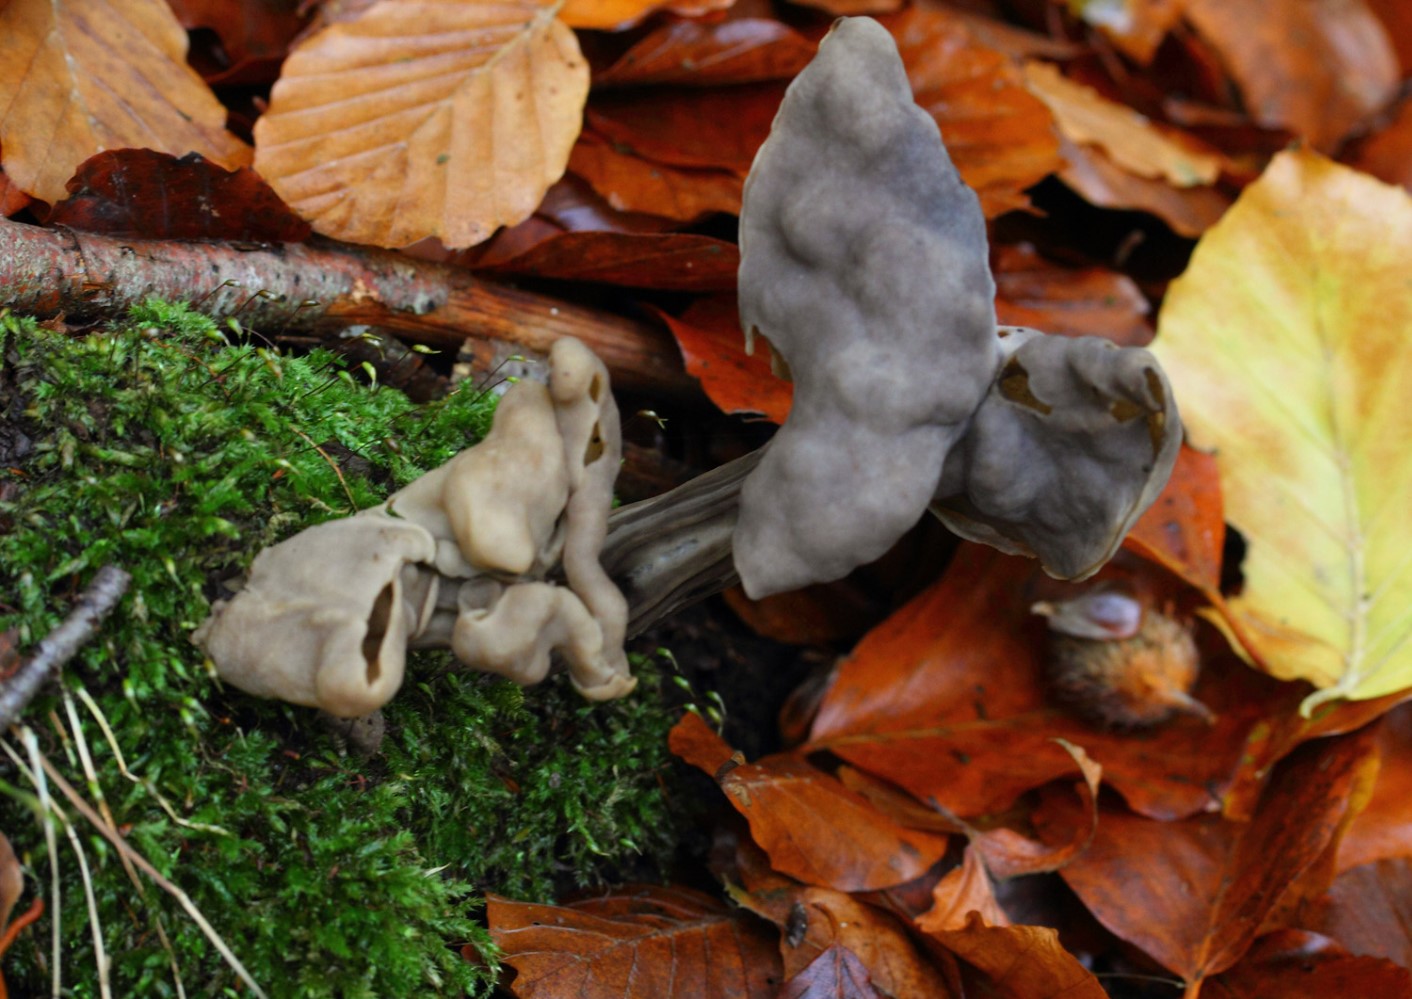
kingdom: Fungi
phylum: Ascomycota
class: Pezizomycetes
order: Pezizales
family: Helvellaceae
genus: Helvella
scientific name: Helvella lacunosa
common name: grubet foldhat
